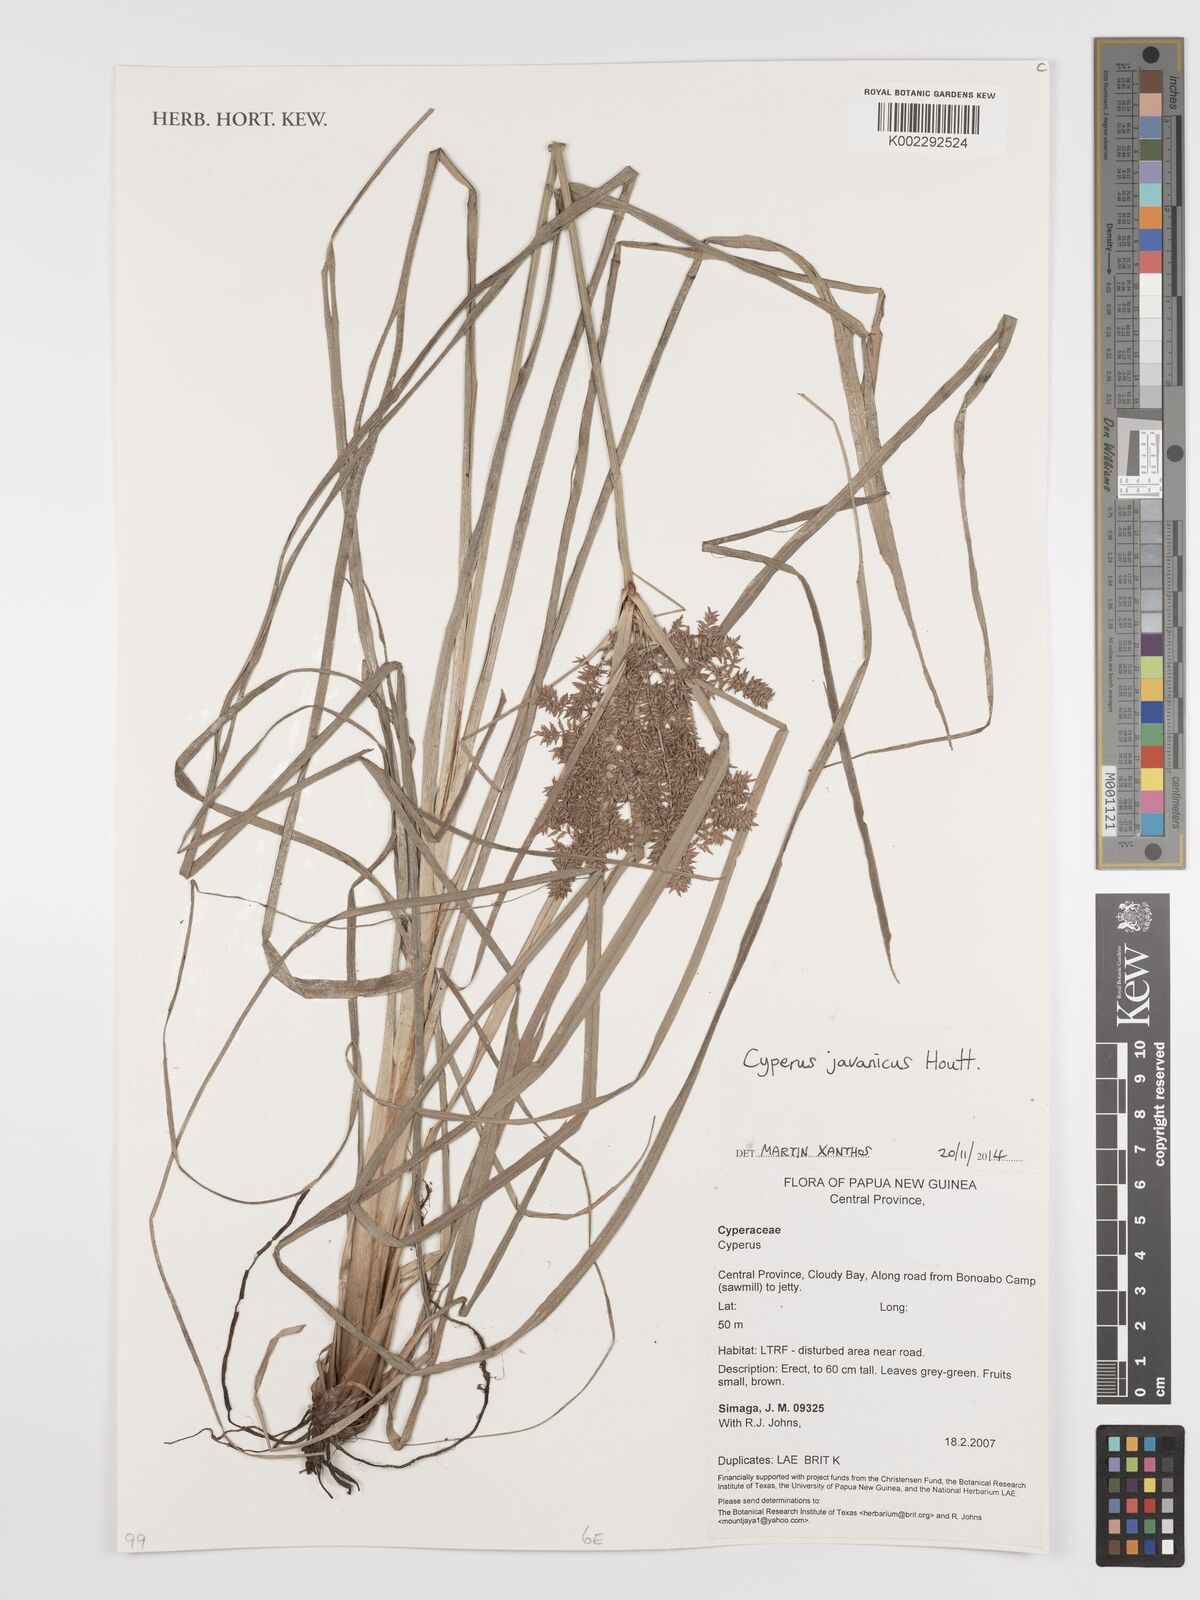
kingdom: Plantae
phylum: Tracheophyta
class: Liliopsida
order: Poales
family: Cyperaceae
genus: Cyperus
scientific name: Cyperus javanicus
